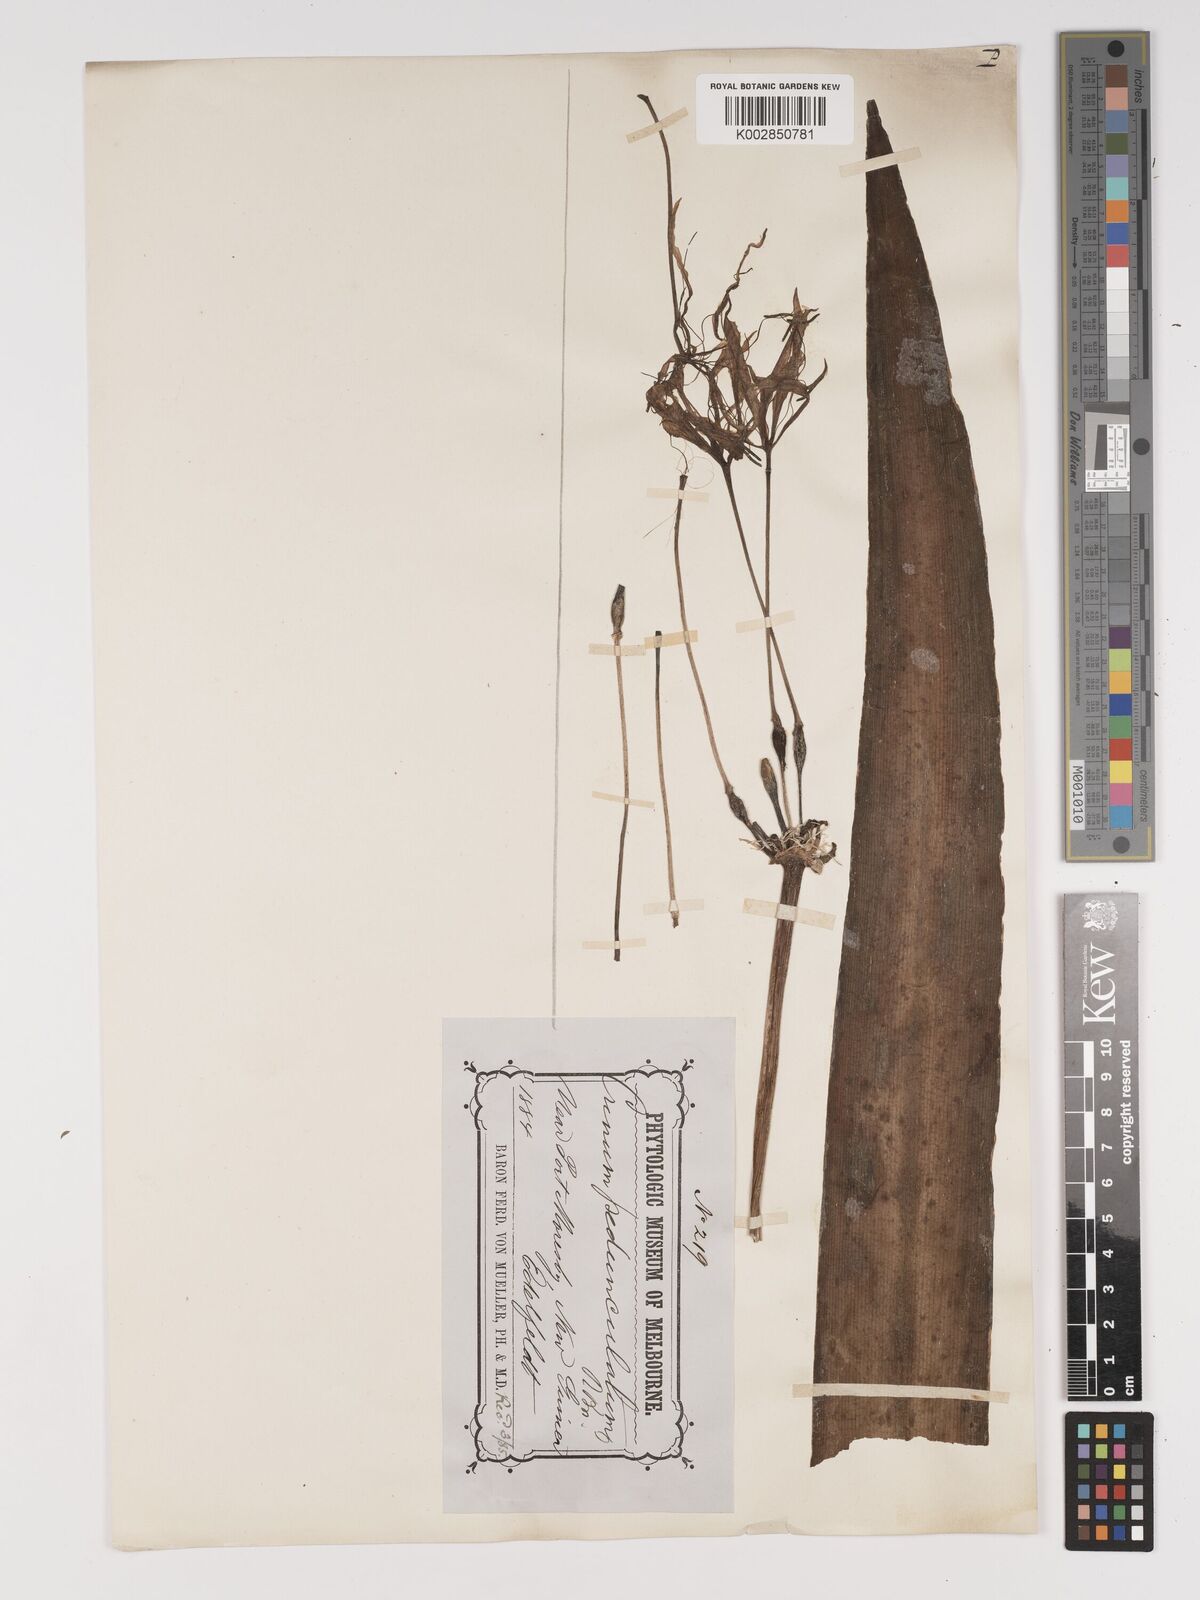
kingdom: Plantae
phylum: Tracheophyta
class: Liliopsida
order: Asparagales
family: Amaryllidaceae
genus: Crinum
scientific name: Crinum asiaticum
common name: Poisonbulb
